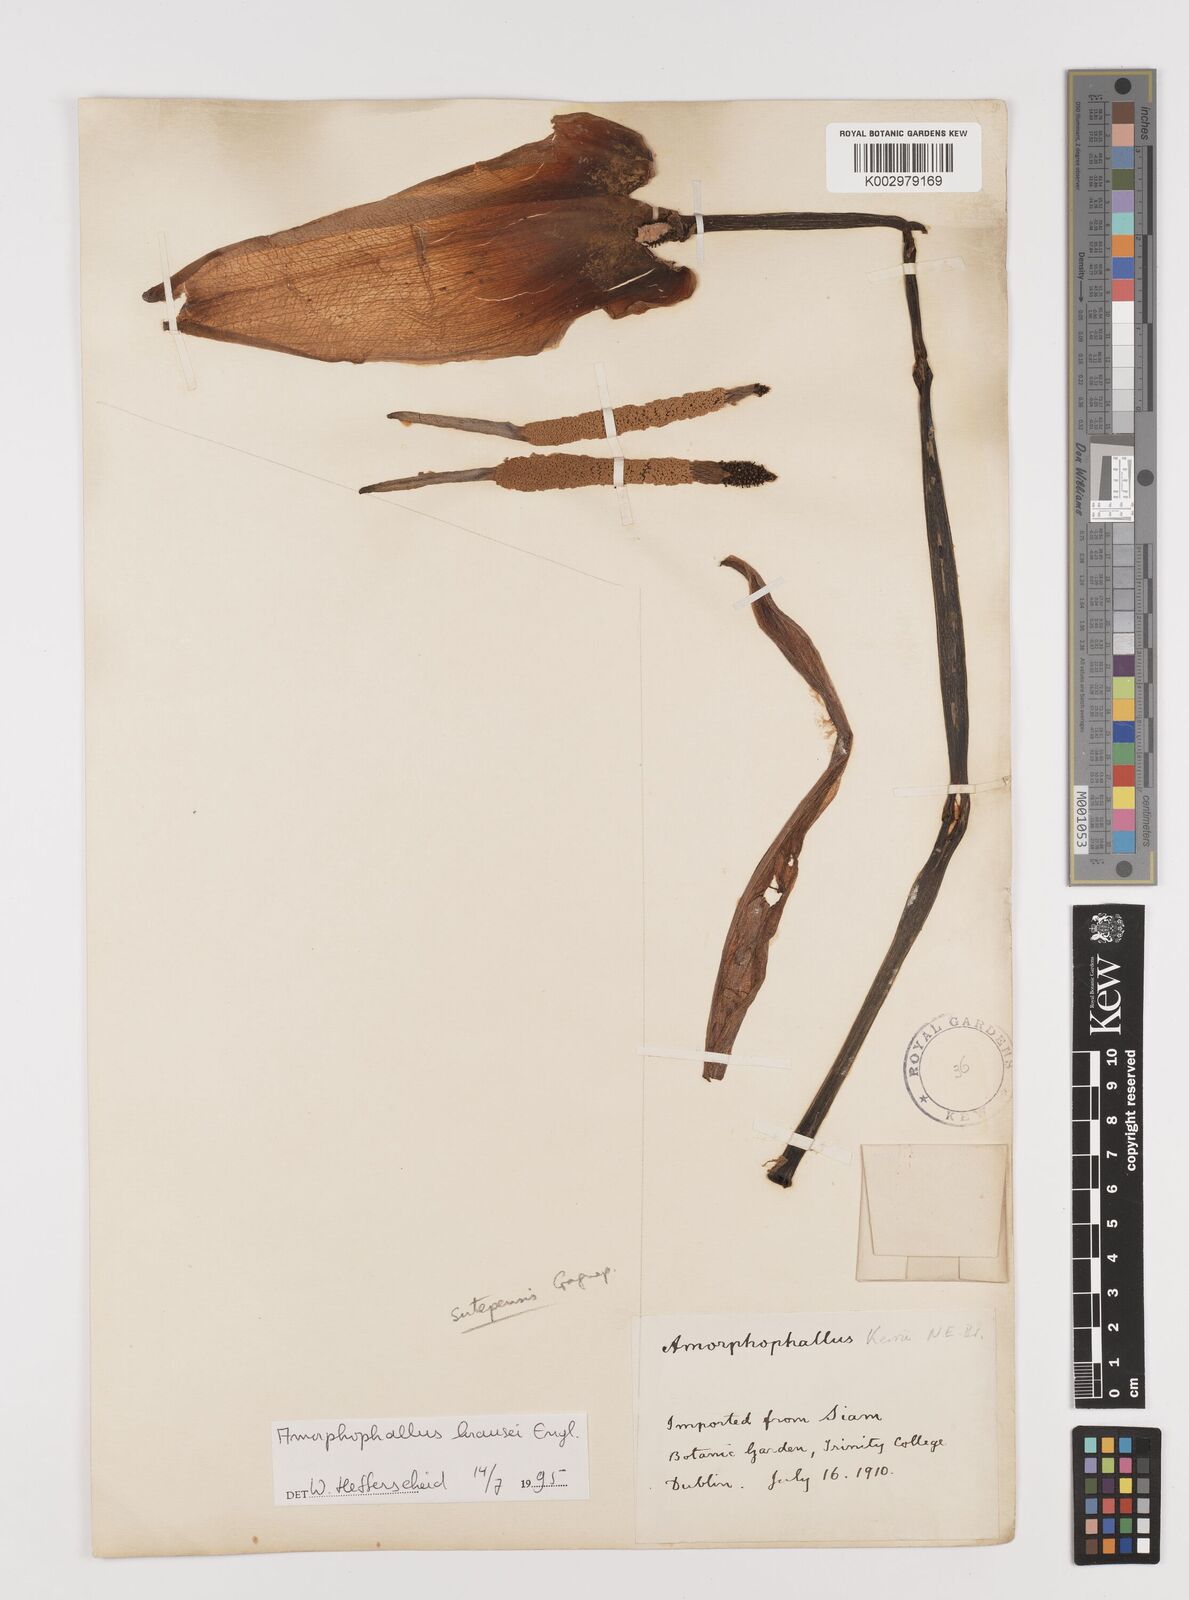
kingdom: Plantae
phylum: Tracheophyta
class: Liliopsida
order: Alismatales
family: Araceae
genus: Amorphophallus
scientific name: Amorphophallus krausei
